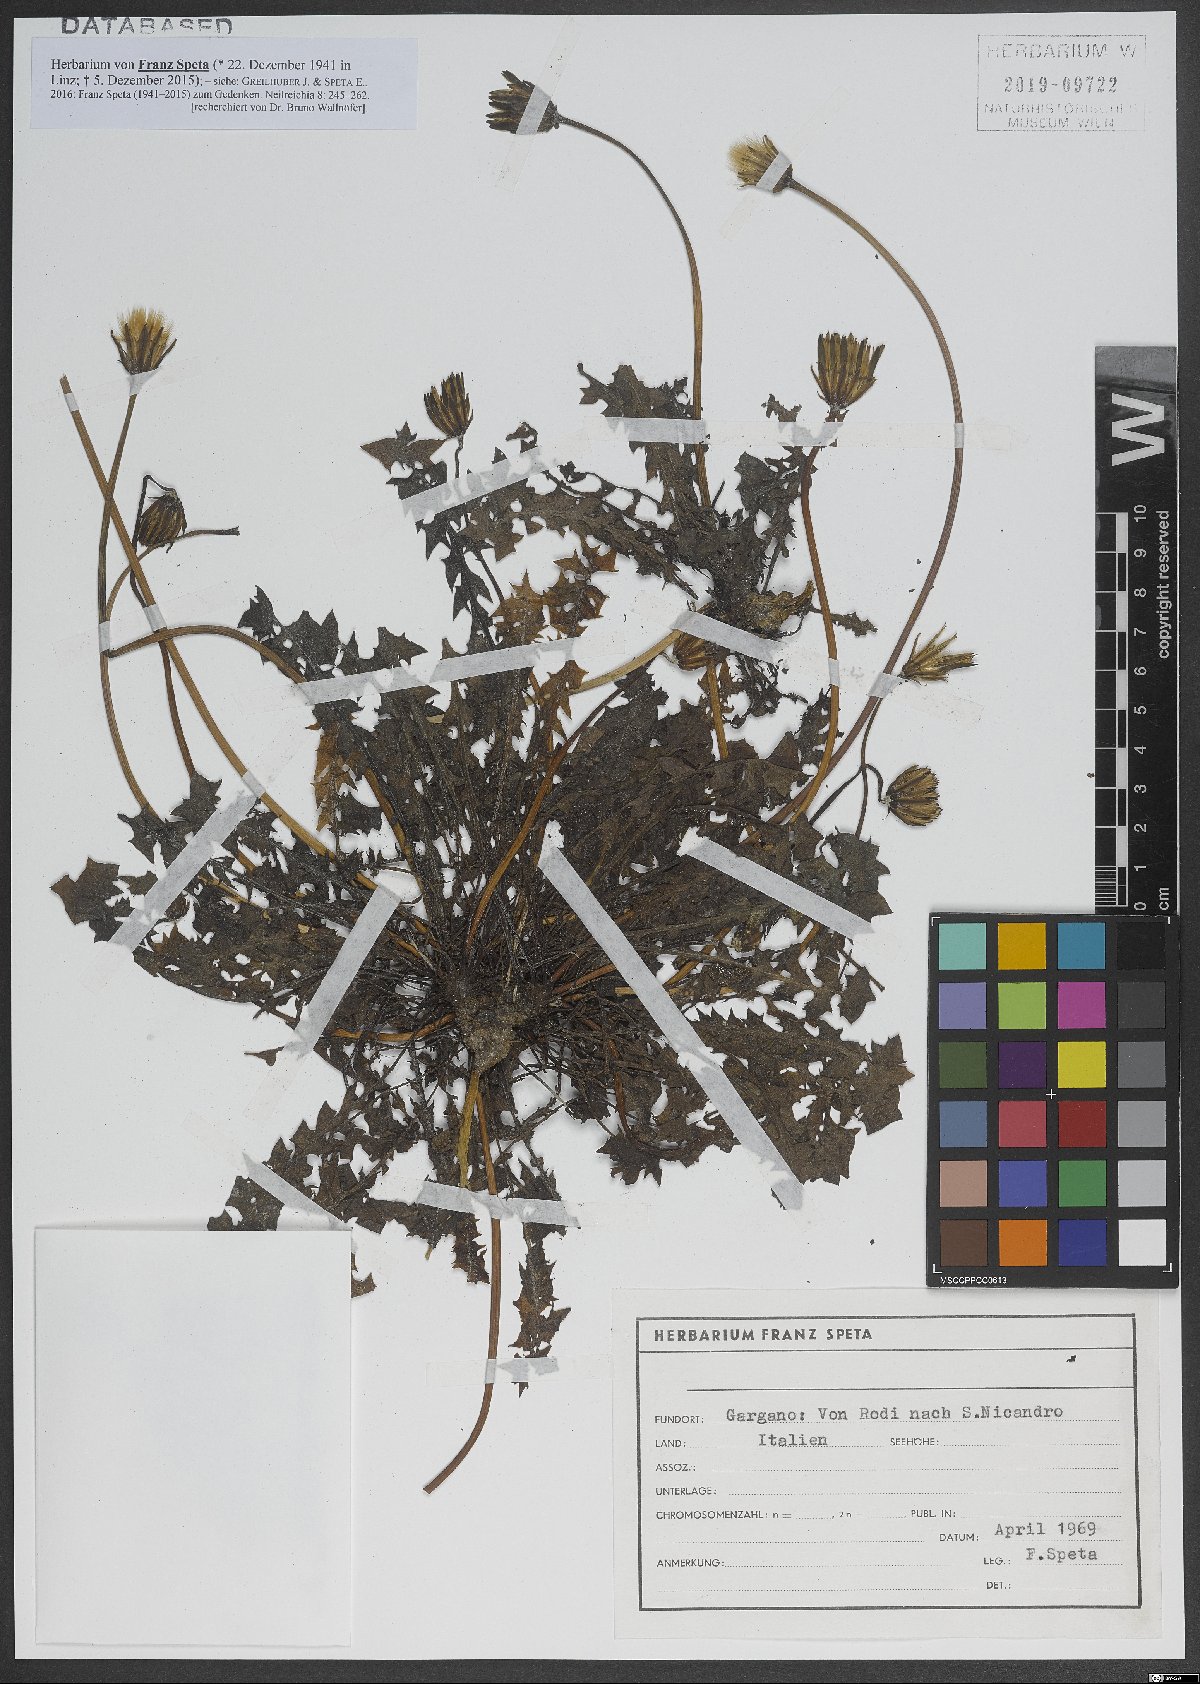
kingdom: Plantae
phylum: Tracheophyta
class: Magnoliopsida
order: Asterales
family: Asteraceae
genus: Hyoseris
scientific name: Hyoseris radiata
